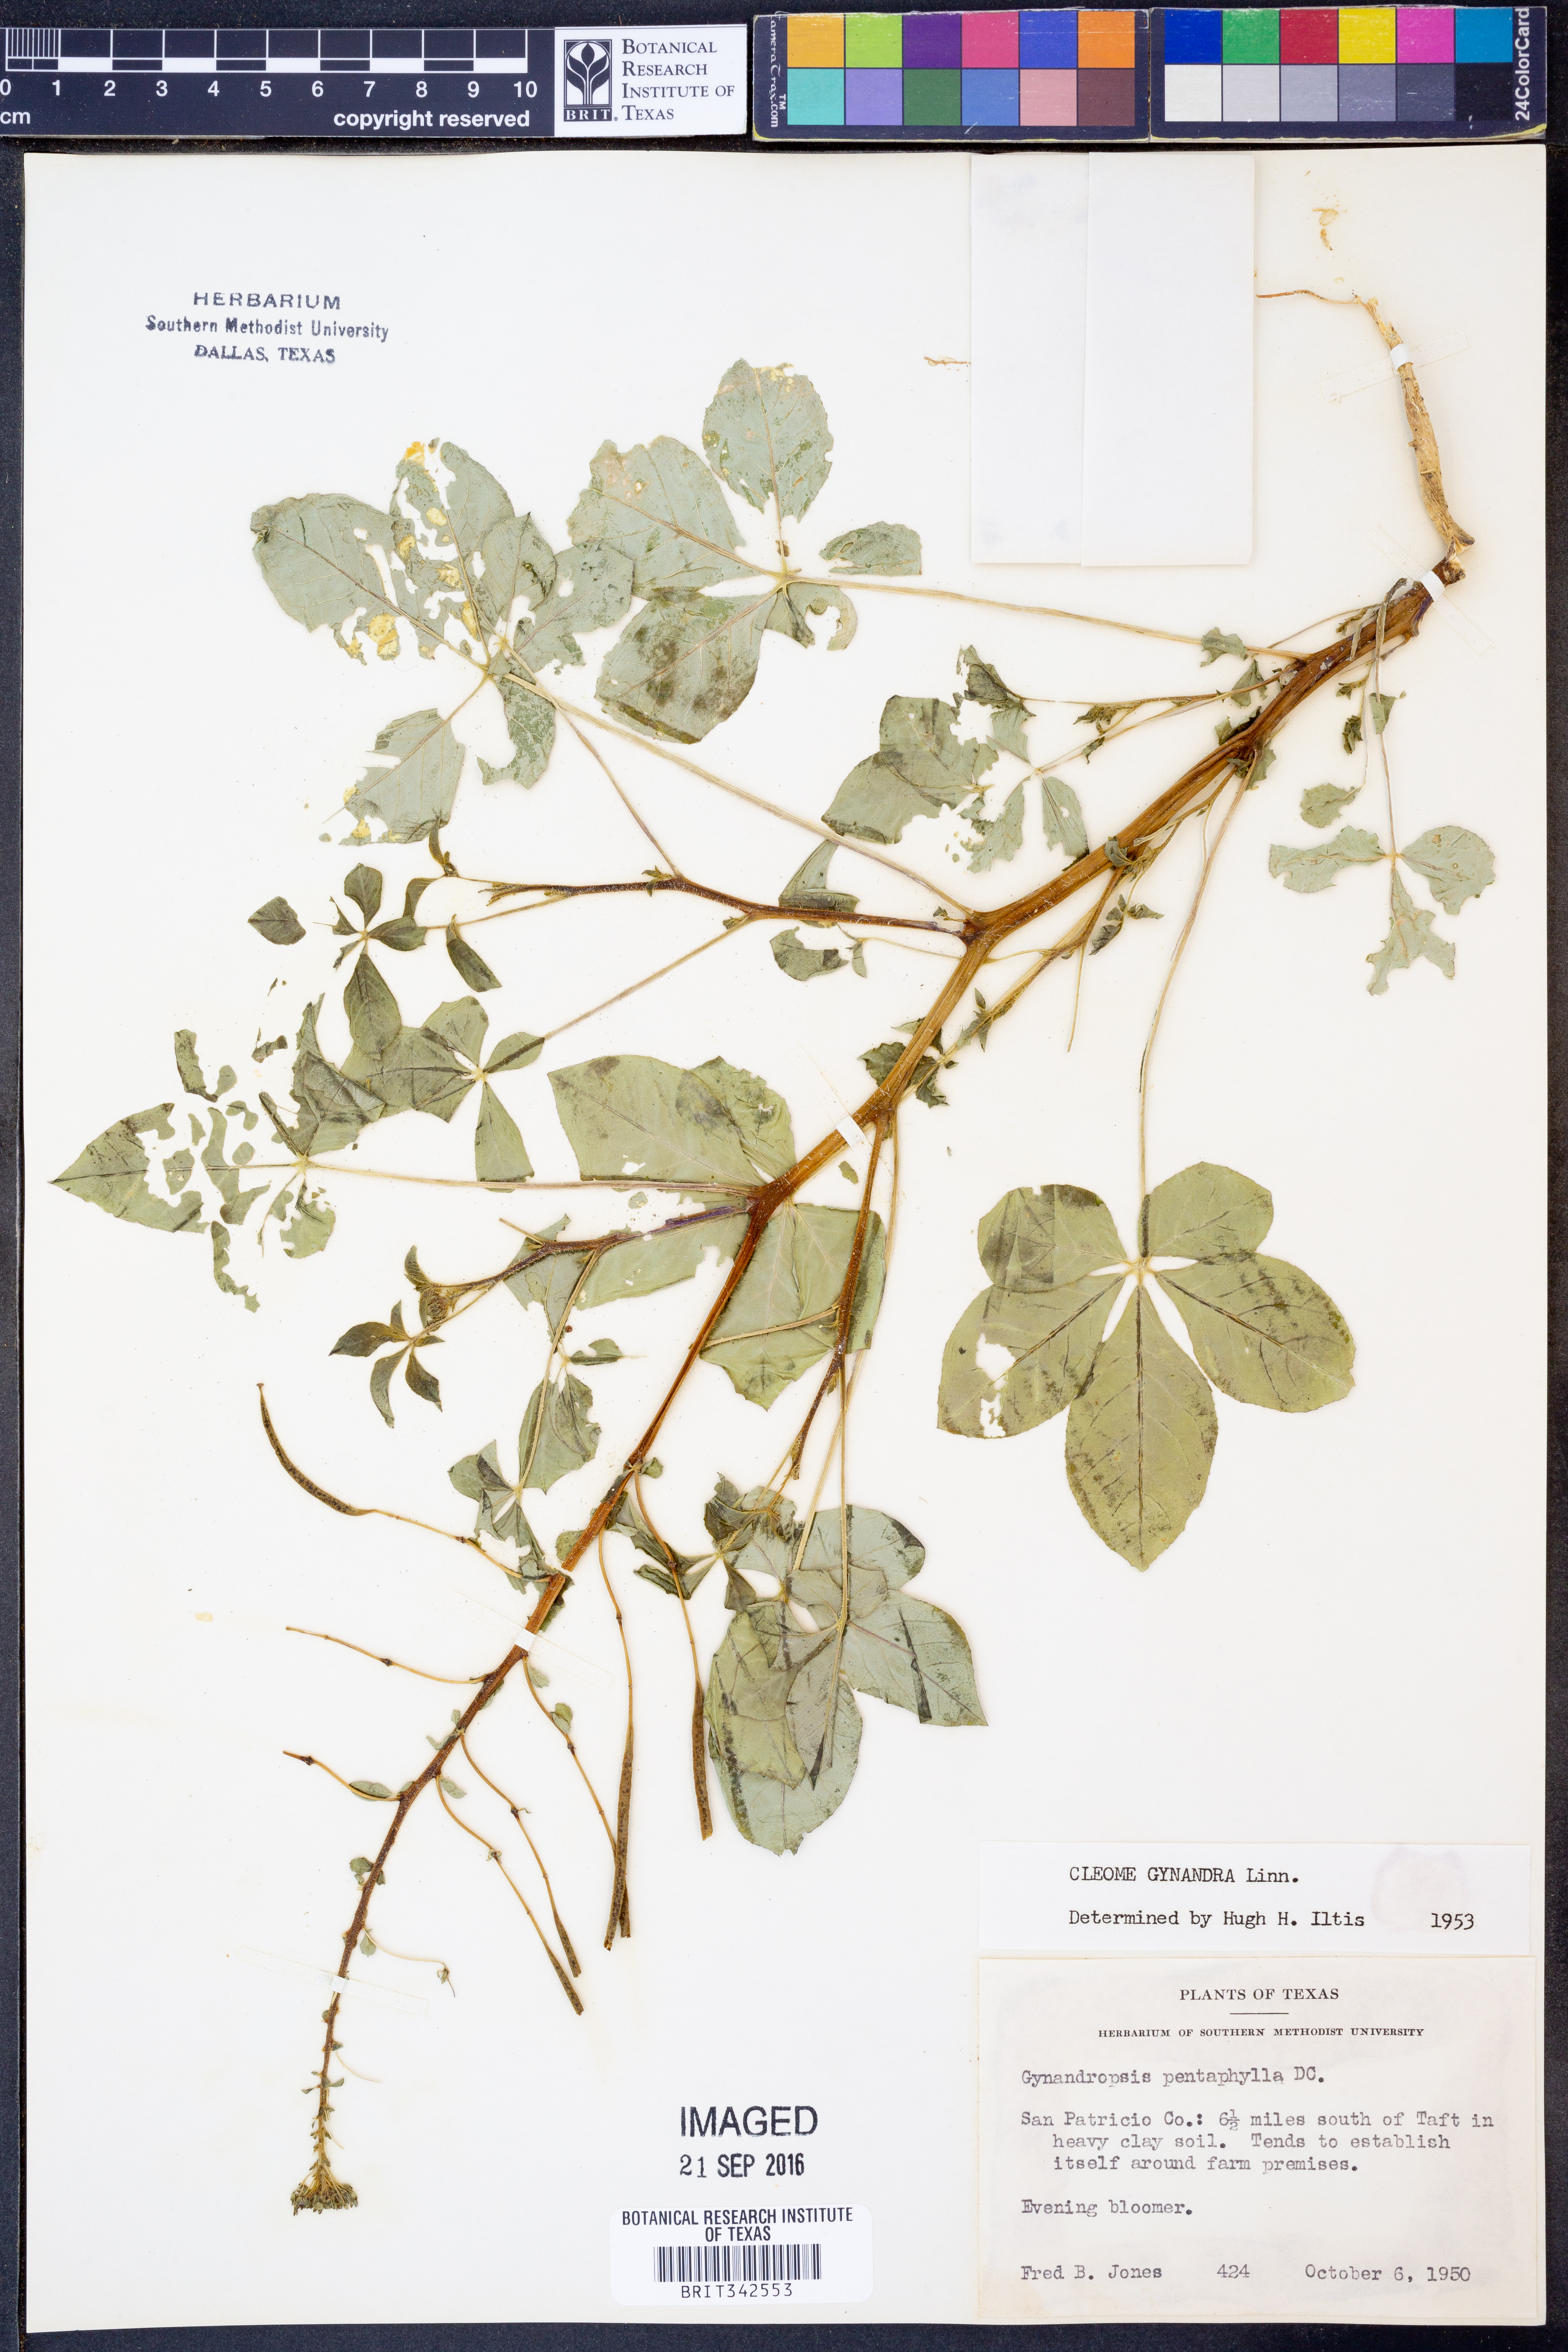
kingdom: Plantae
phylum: Tracheophyta
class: Magnoliopsida
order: Brassicales
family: Cleomaceae
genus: Gynandropsis
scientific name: Gynandropsis gynandra
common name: Spiderwisp
